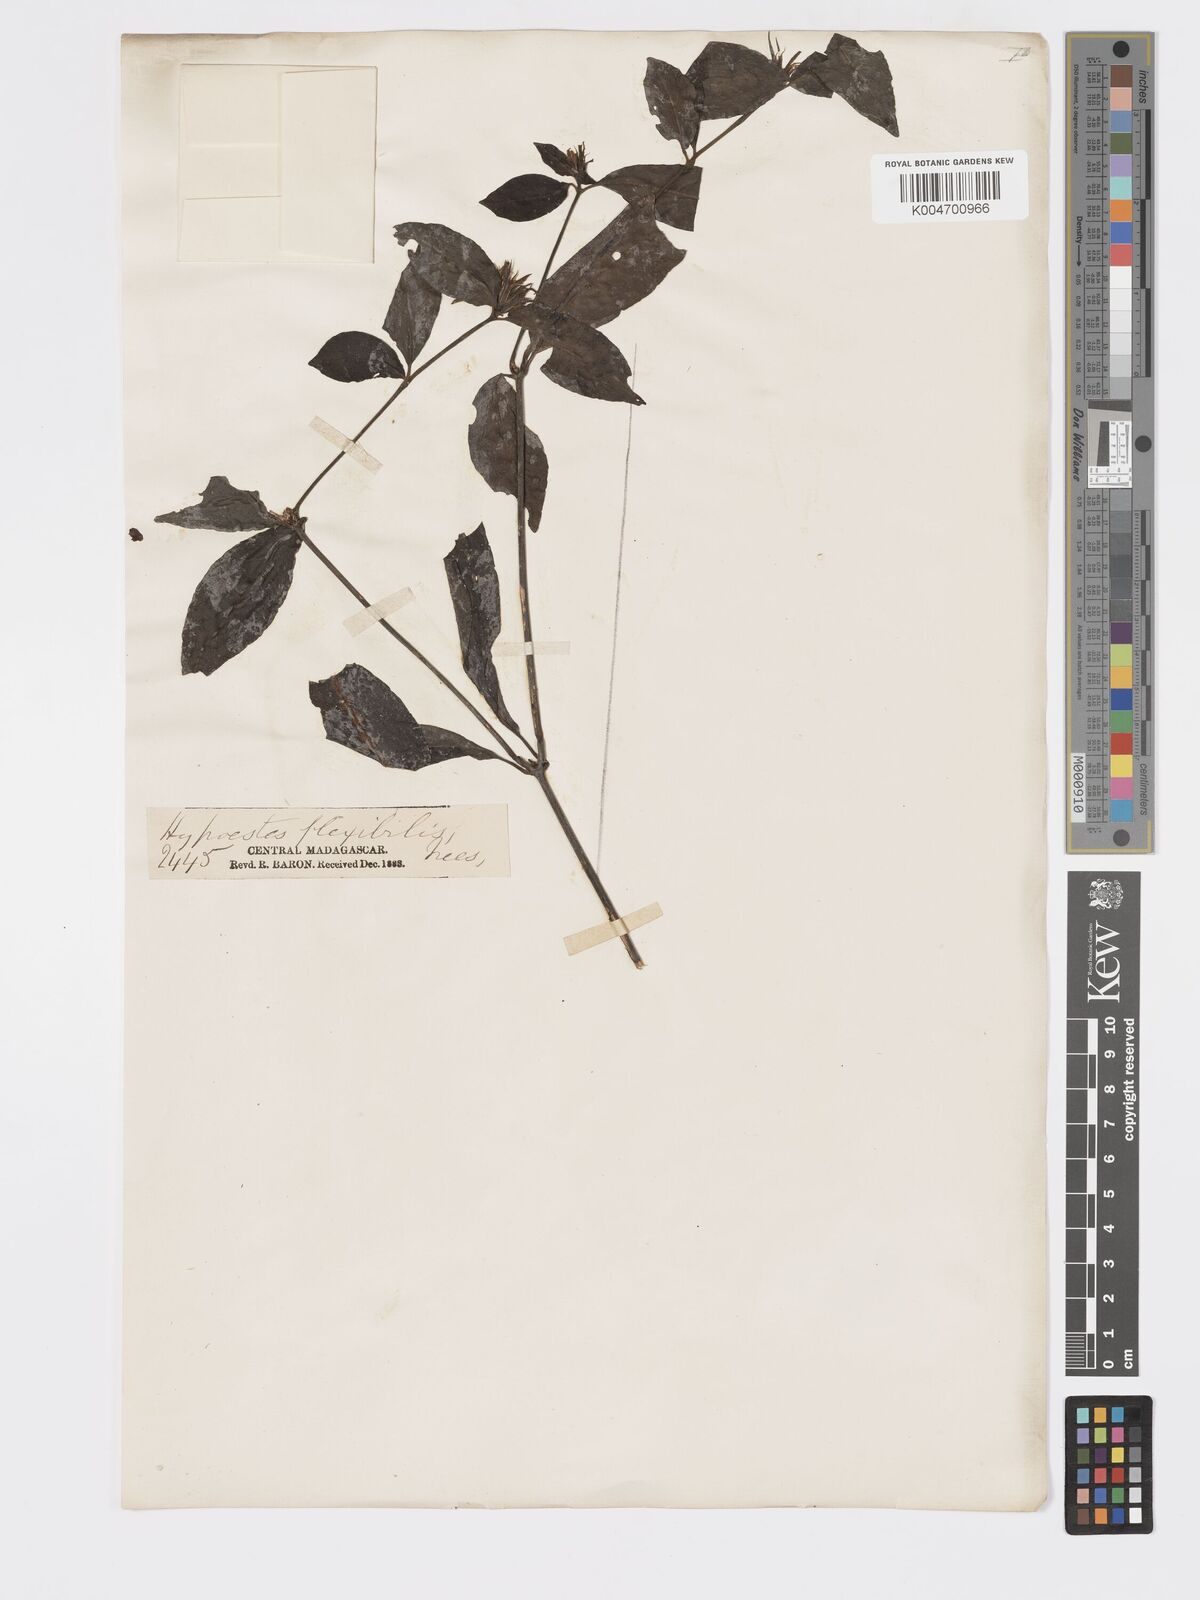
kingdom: Plantae
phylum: Tracheophyta
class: Magnoliopsida
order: Lamiales
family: Acanthaceae
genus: Hypoestes
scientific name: Hypoestes
